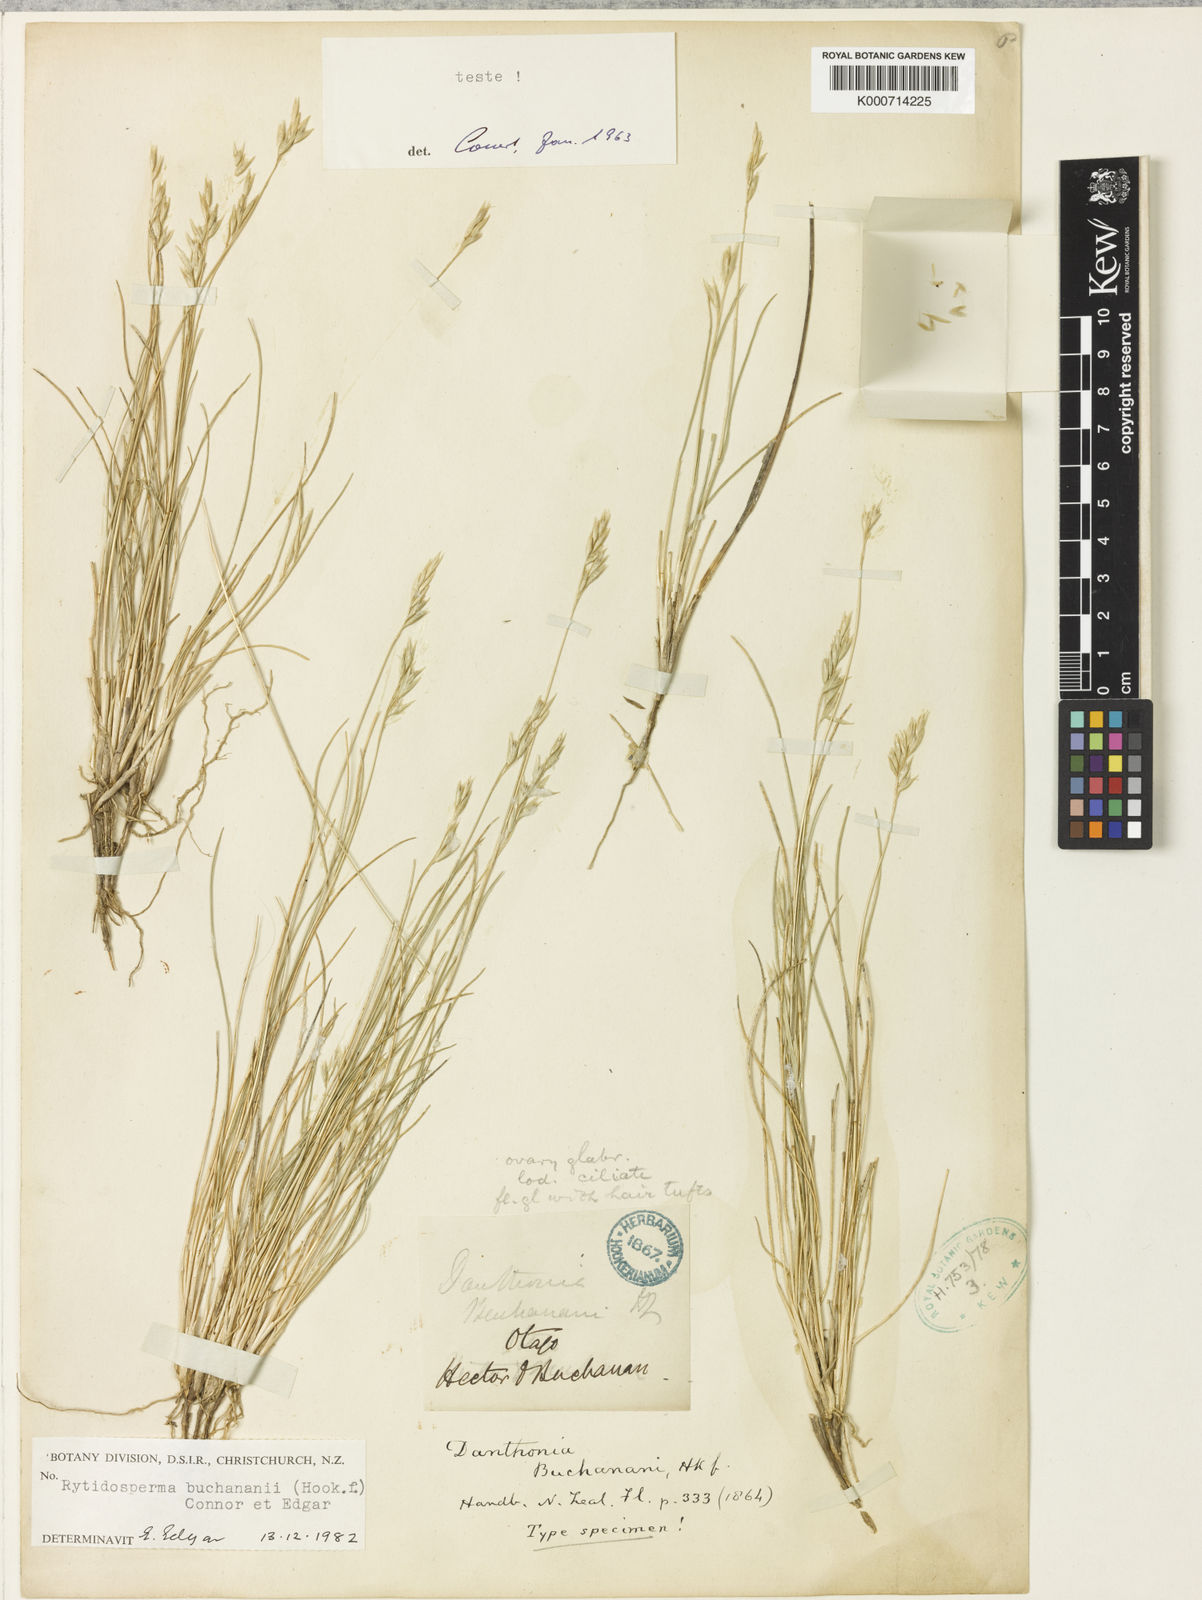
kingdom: Plantae
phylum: Tracheophyta
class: Liliopsida
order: Poales
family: Poaceae
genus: Rytidosperma
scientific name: Rytidosperma buchananii
